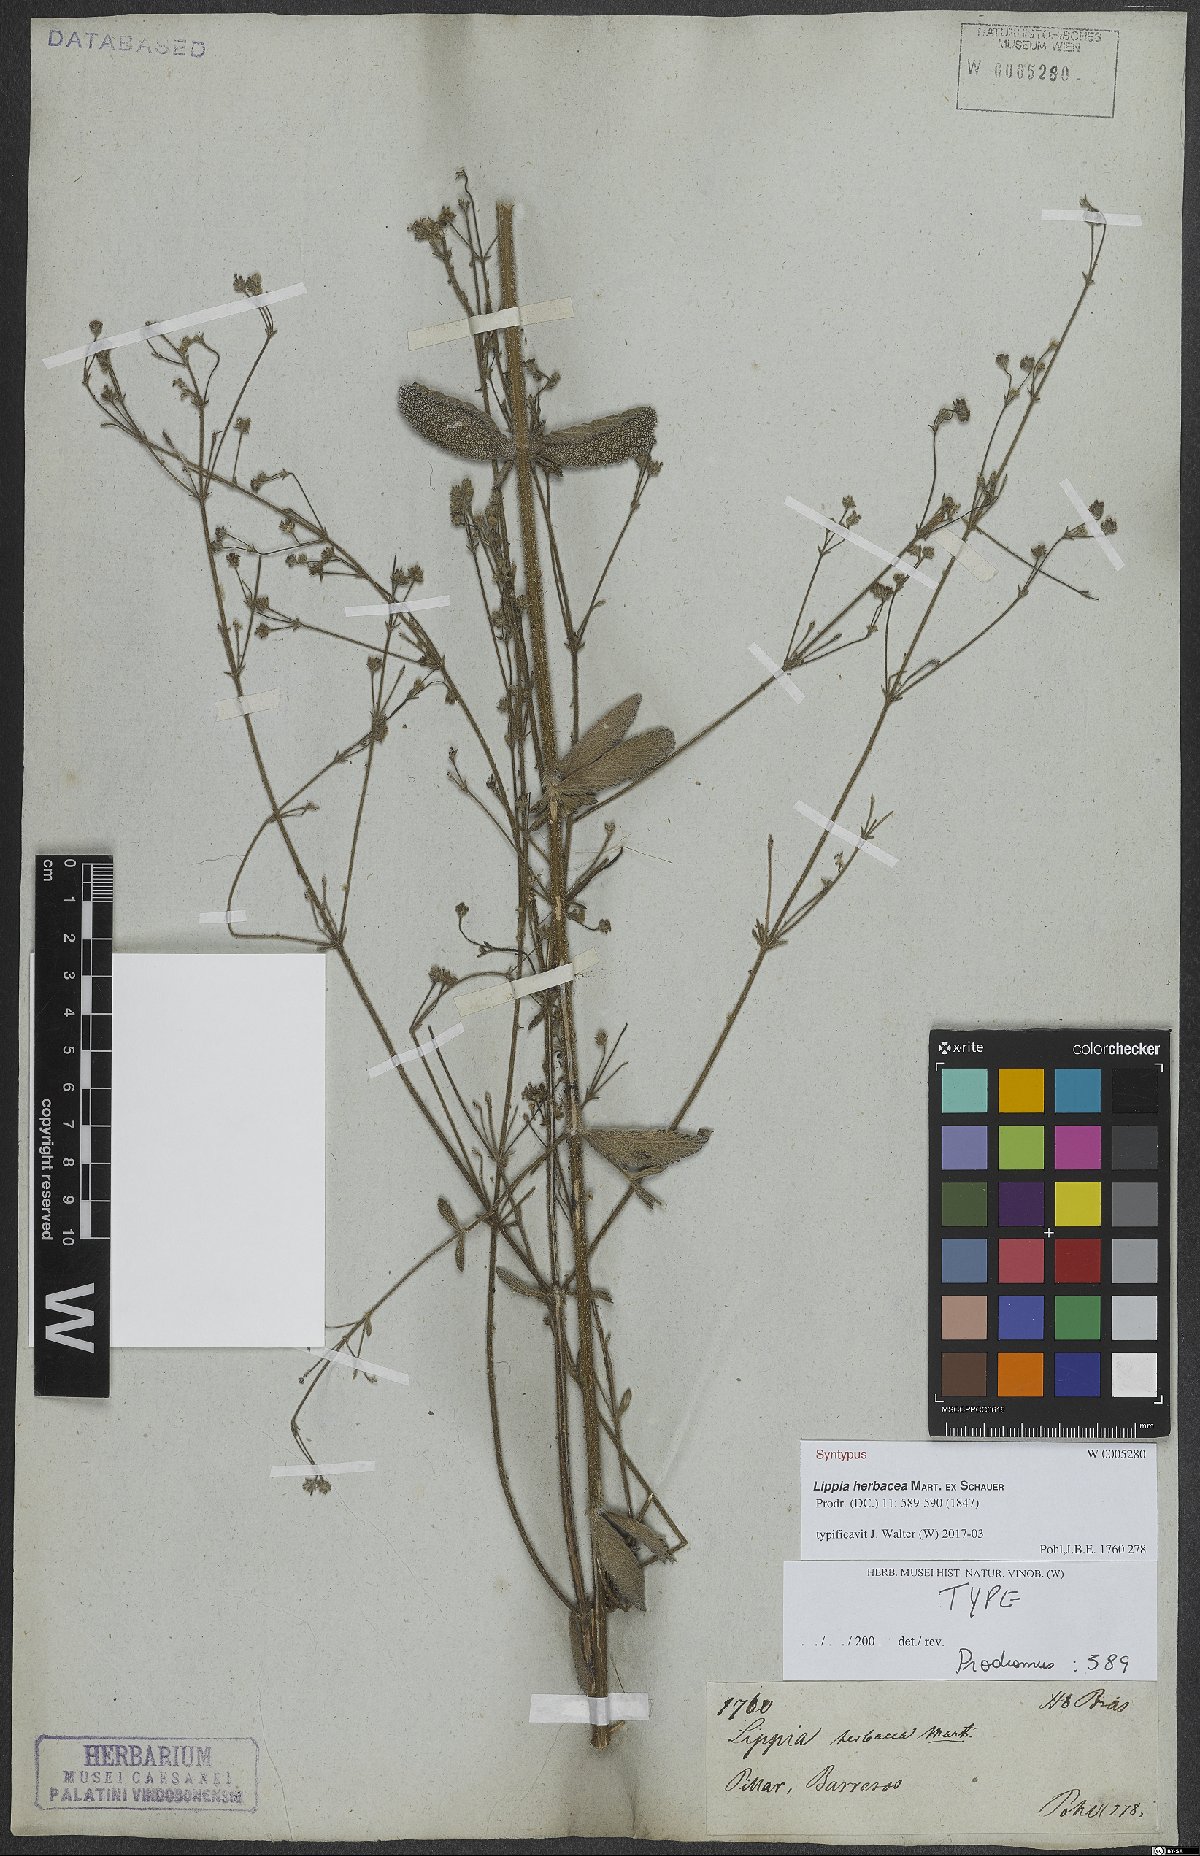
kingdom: Plantae
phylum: Tracheophyta
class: Magnoliopsida
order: Lamiales
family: Verbenaceae
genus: Lippia
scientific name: Lippia herbacea
